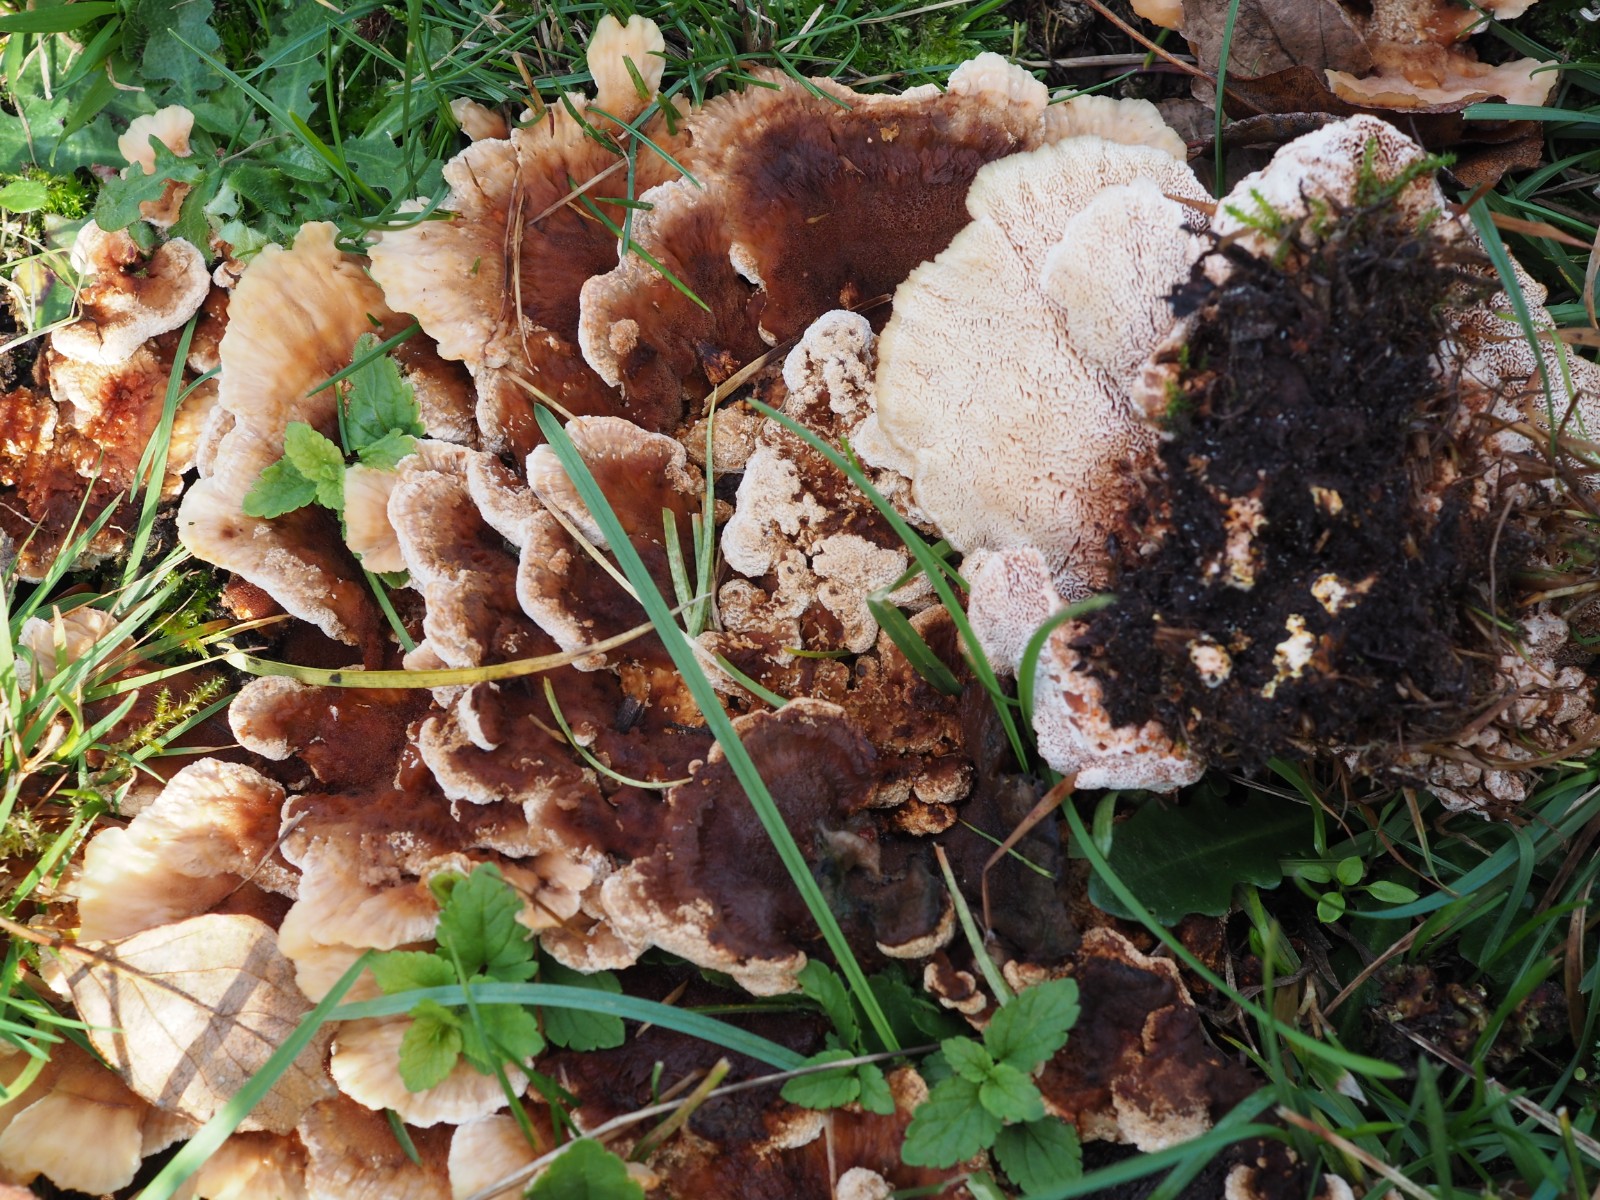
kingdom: Fungi
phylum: Basidiomycota
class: Agaricomycetes
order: Polyporales
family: Podoscyphaceae
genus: Abortiporus
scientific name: Abortiporus biennis
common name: rødmende pjalteporesvamp
